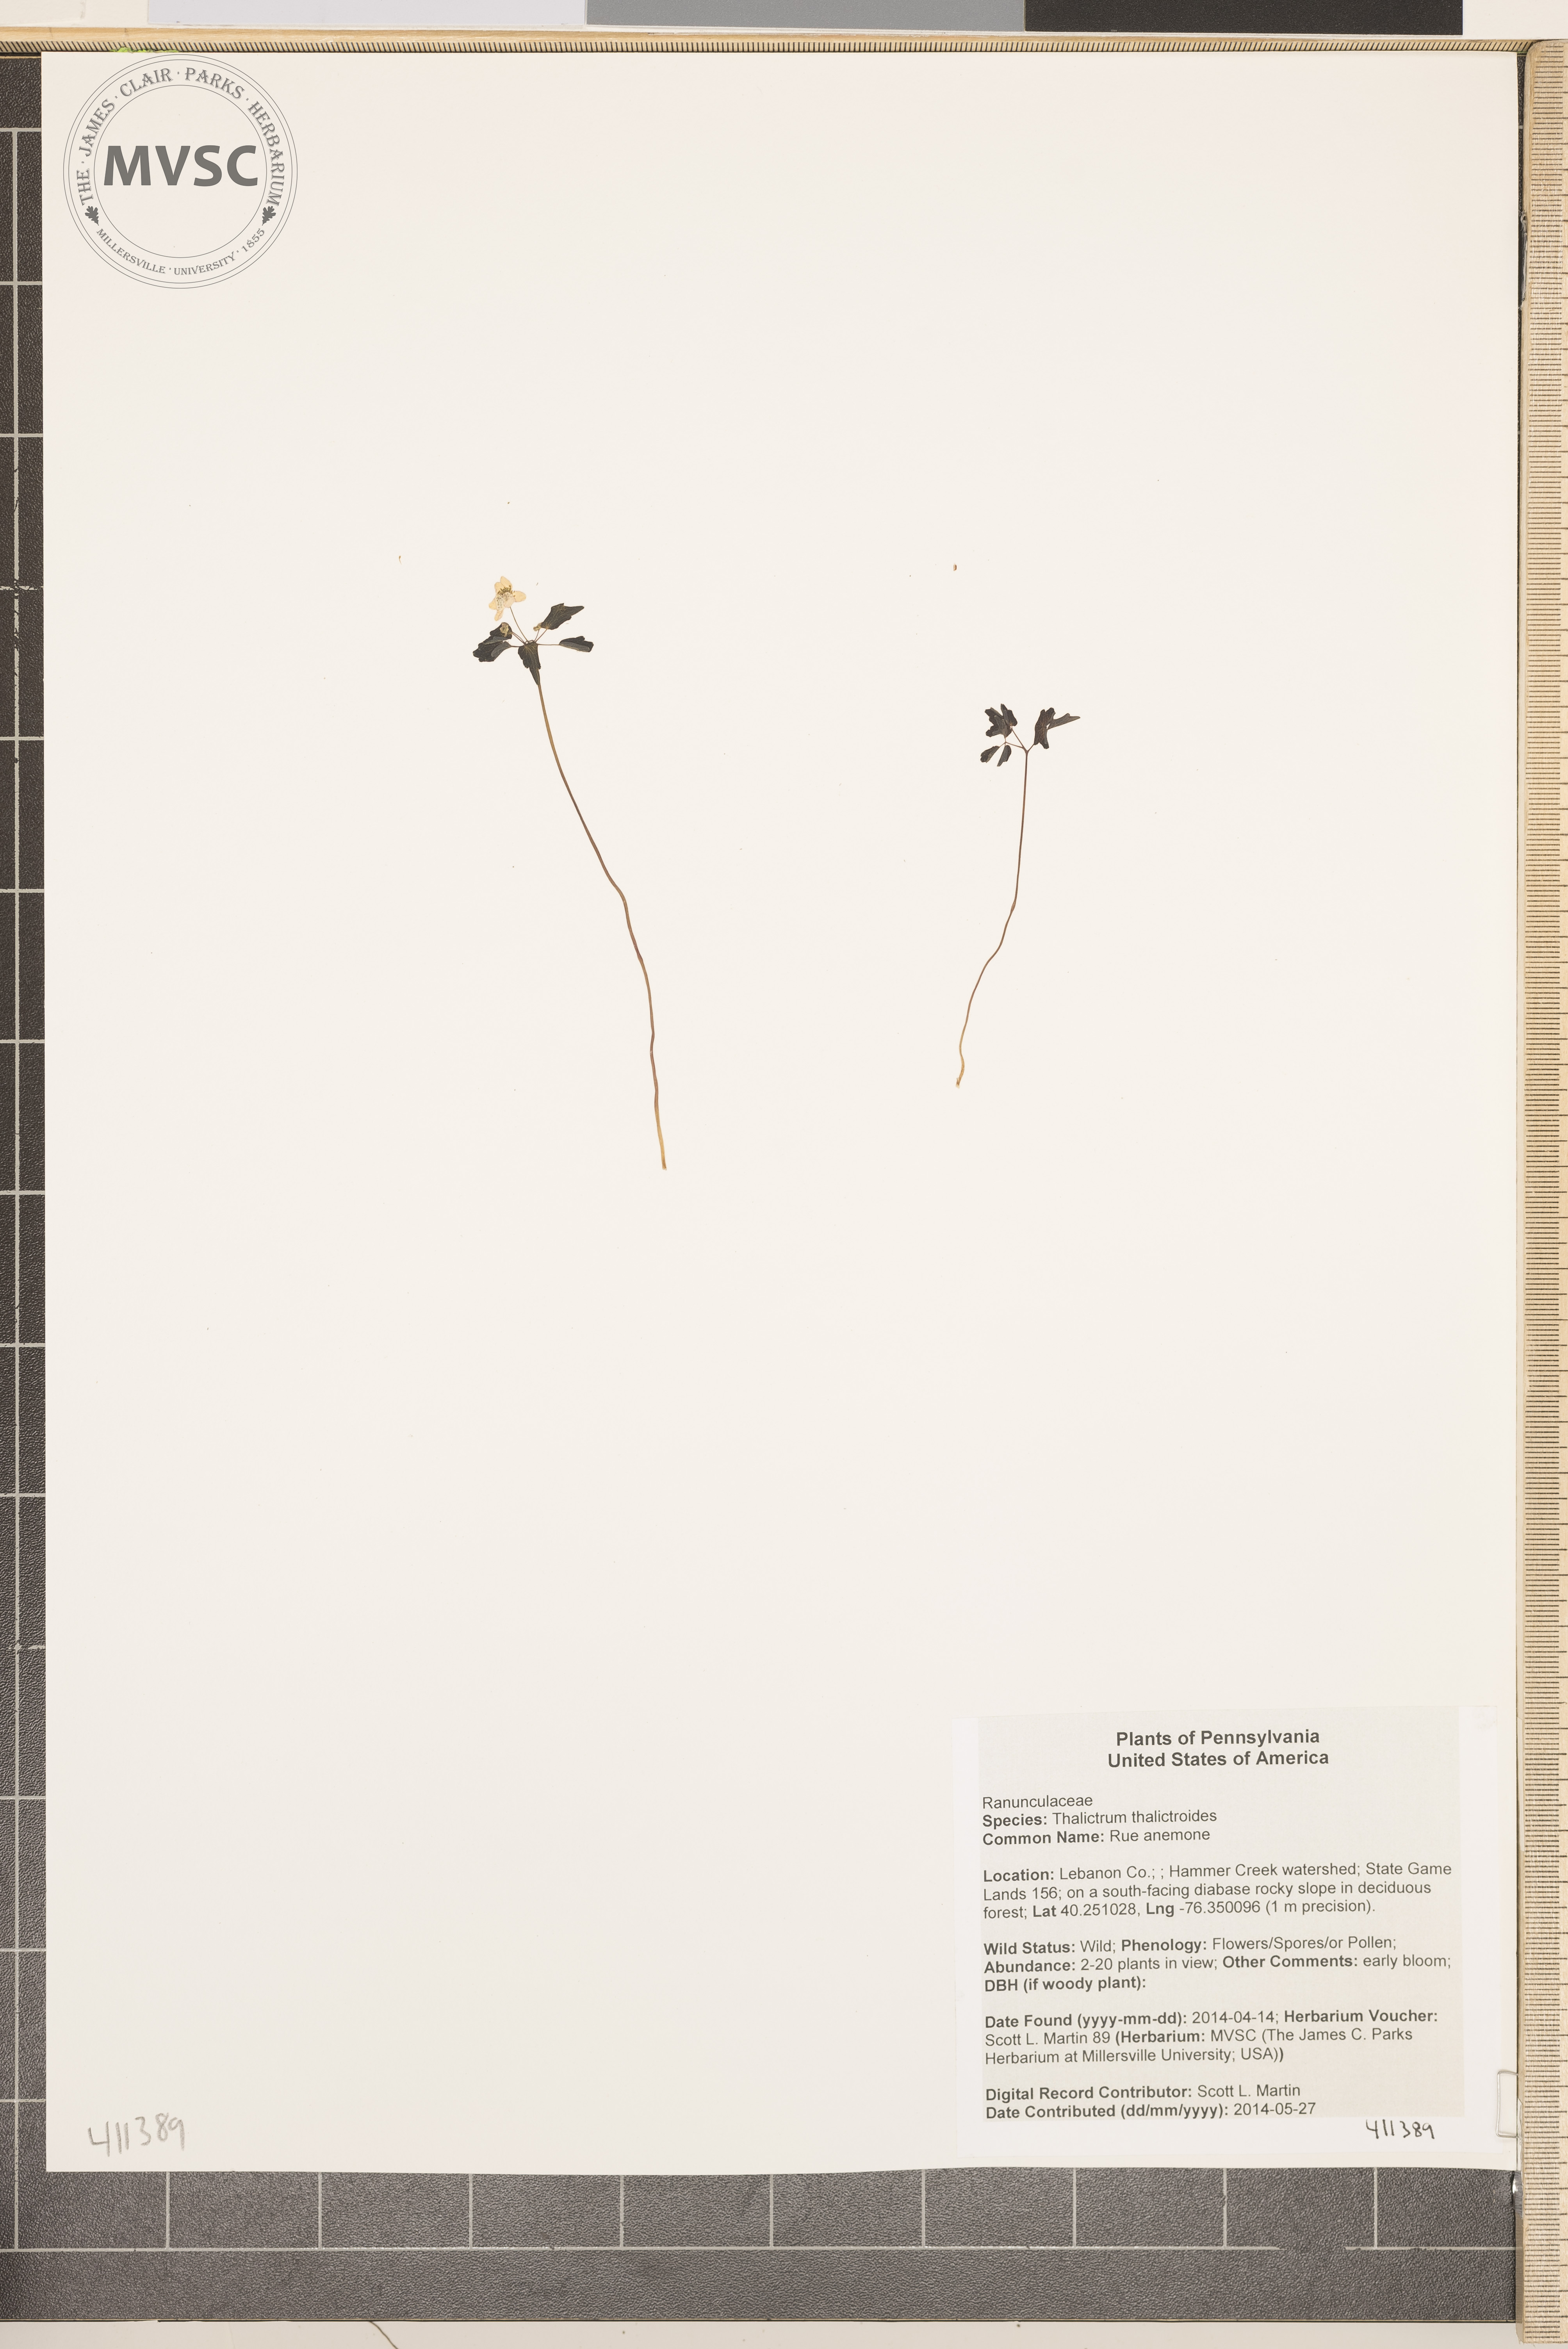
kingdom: Plantae
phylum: Tracheophyta
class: Magnoliopsida
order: Ranunculales
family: Ranunculaceae
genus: Thalictrum
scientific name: Thalictrum thalictroides
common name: Rue anemone
